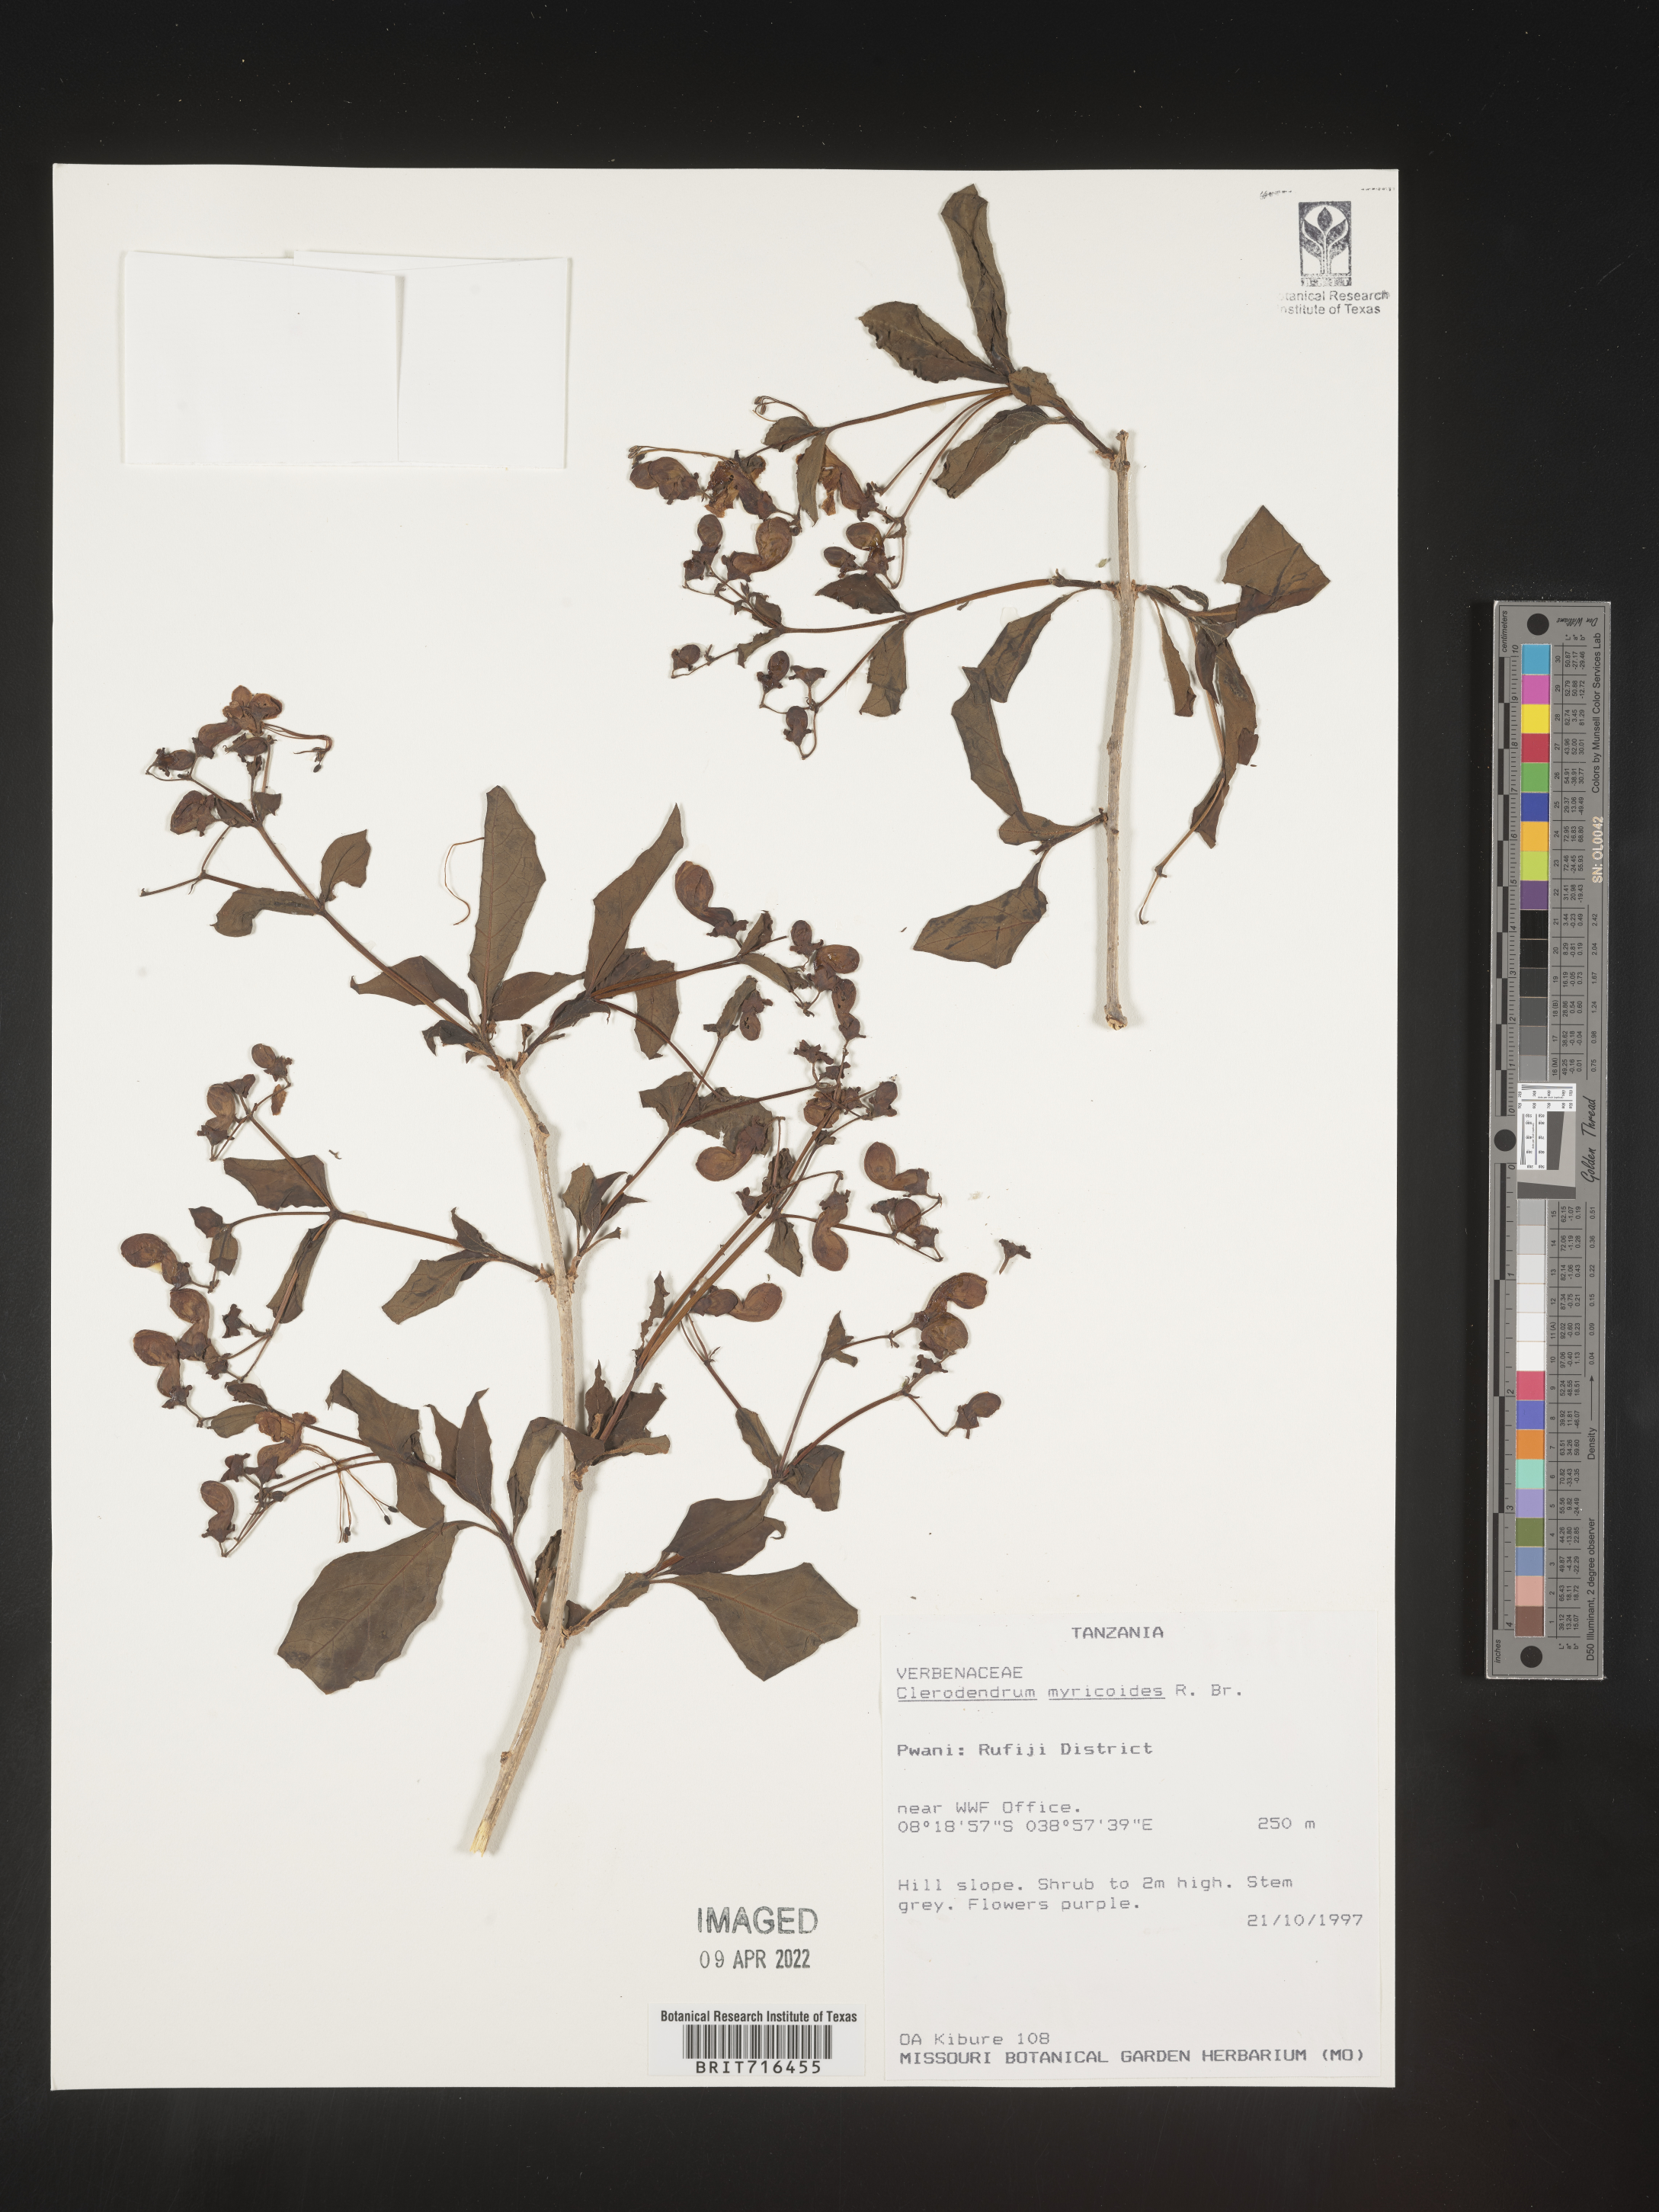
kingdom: Plantae
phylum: Tracheophyta
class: Magnoliopsida
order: Lamiales
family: Lamiaceae
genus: Clerodendrum
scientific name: Clerodendrum
